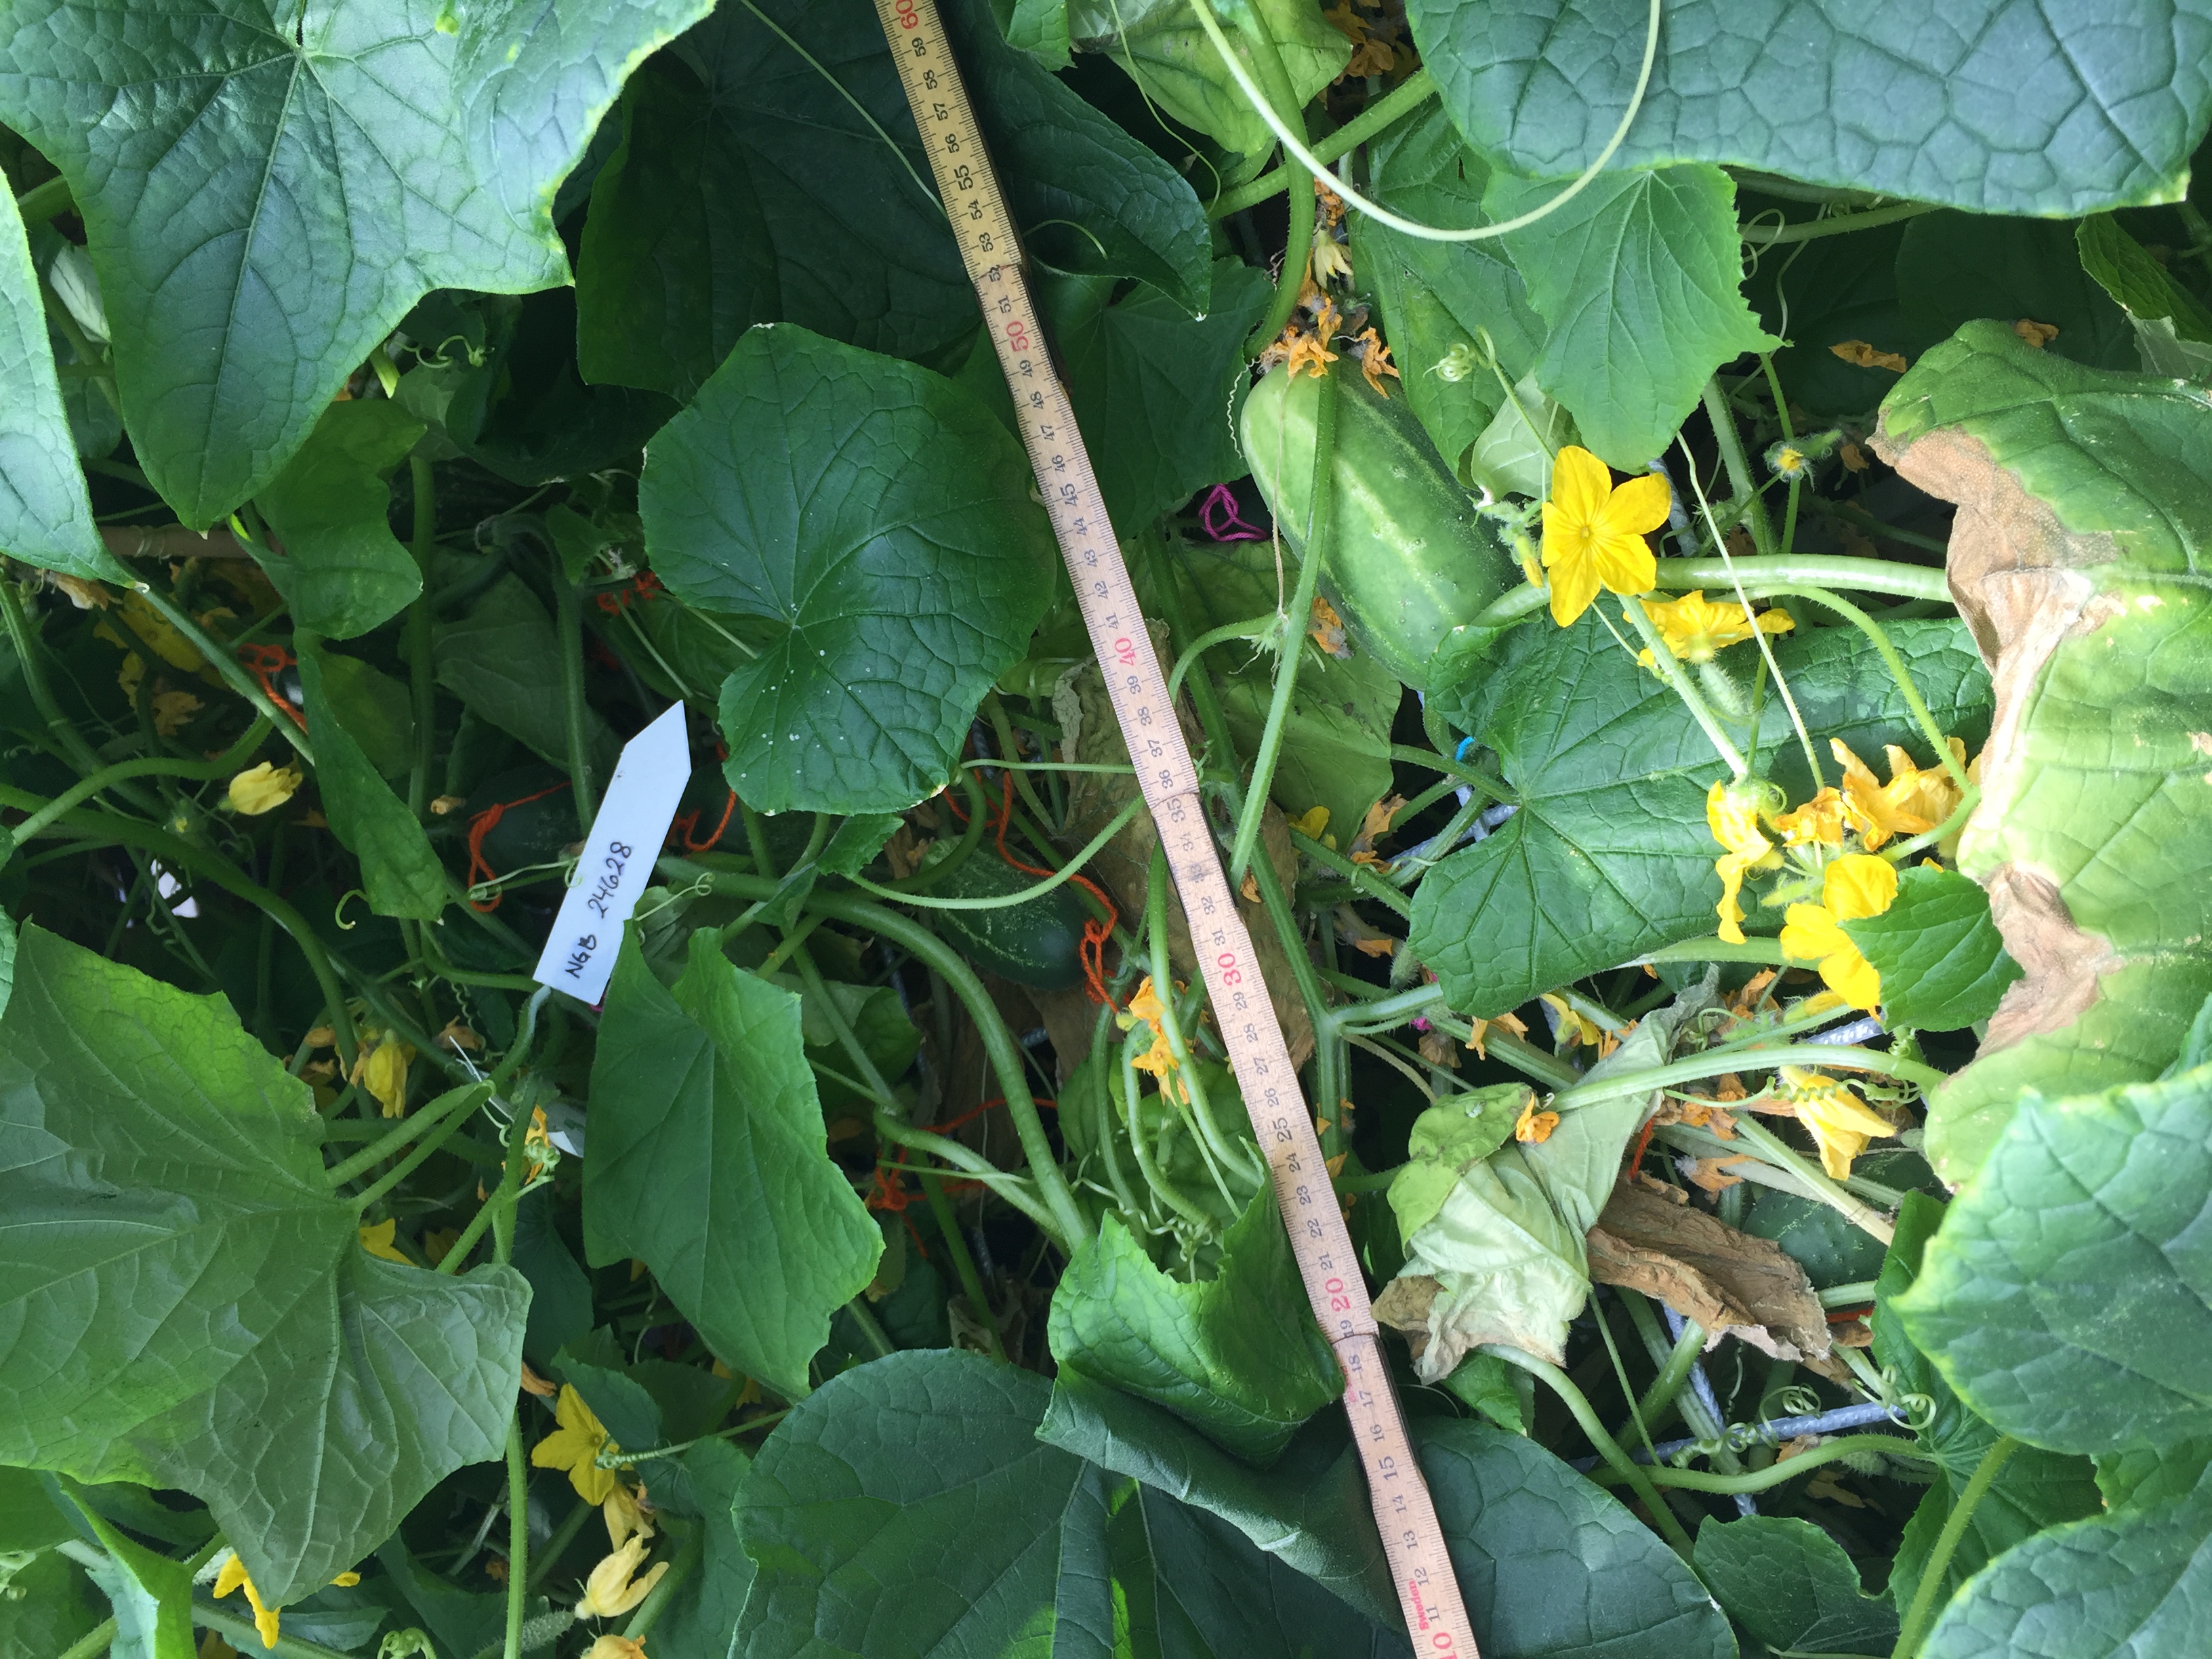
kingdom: Plantae
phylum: Tracheophyta
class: Magnoliopsida
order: Cucurbitales
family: Cucurbitaceae
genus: Cucumis
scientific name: Cucumis sativus
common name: Cucumber
